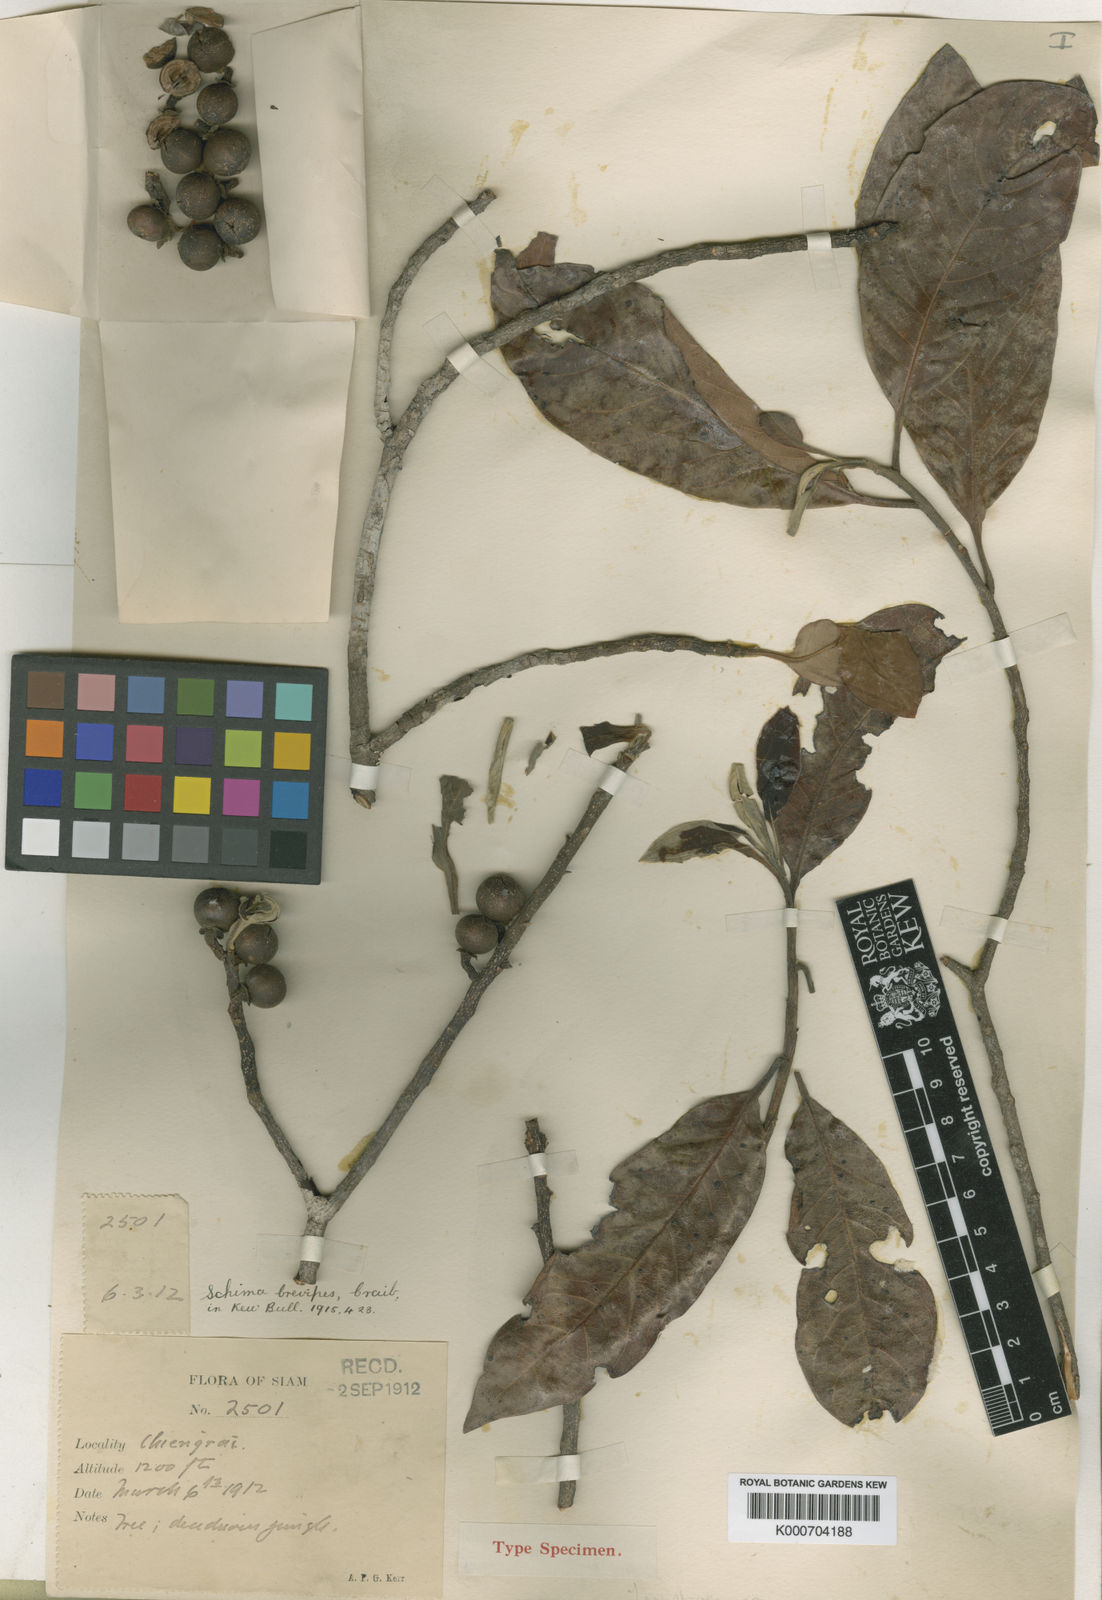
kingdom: Plantae
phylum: Tracheophyta
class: Magnoliopsida
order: Ericales
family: Theaceae
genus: Schima
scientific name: Schima wallichii
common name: Schima
